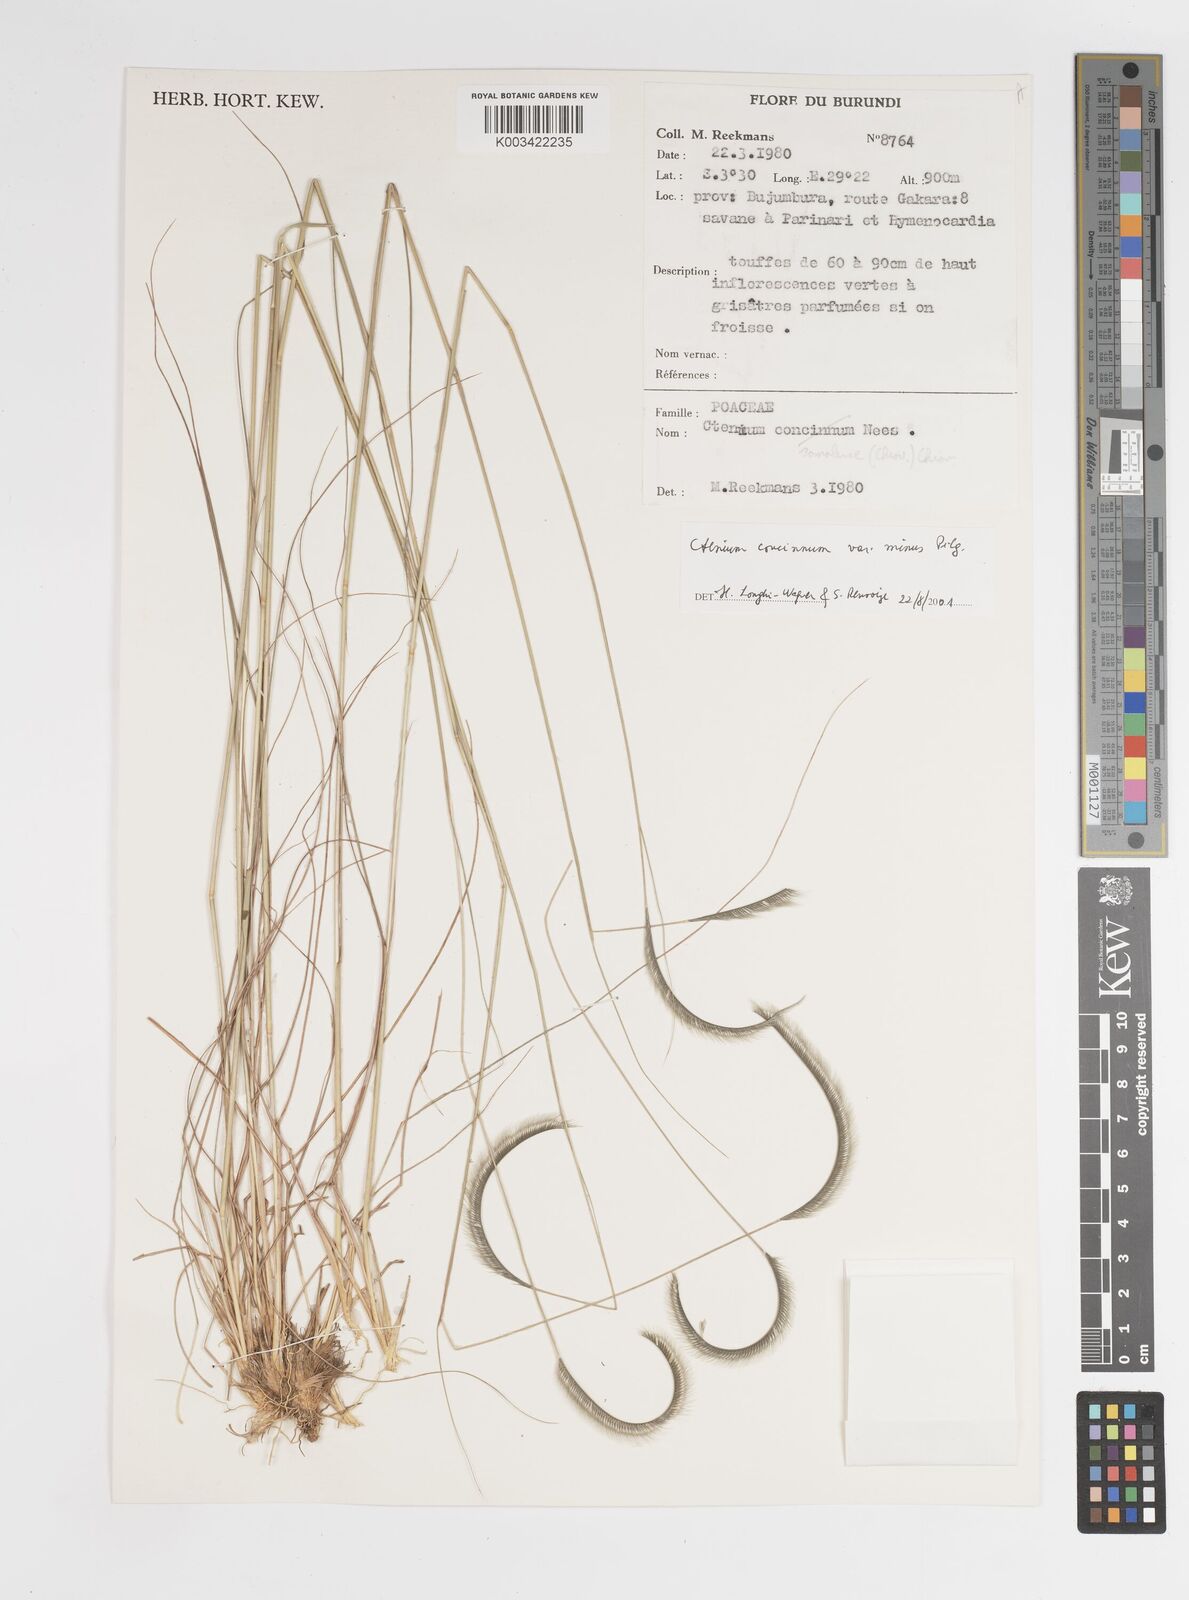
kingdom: Plantae
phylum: Tracheophyta
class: Liliopsida
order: Poales
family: Poaceae
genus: Ctenium
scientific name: Ctenium concinnum
